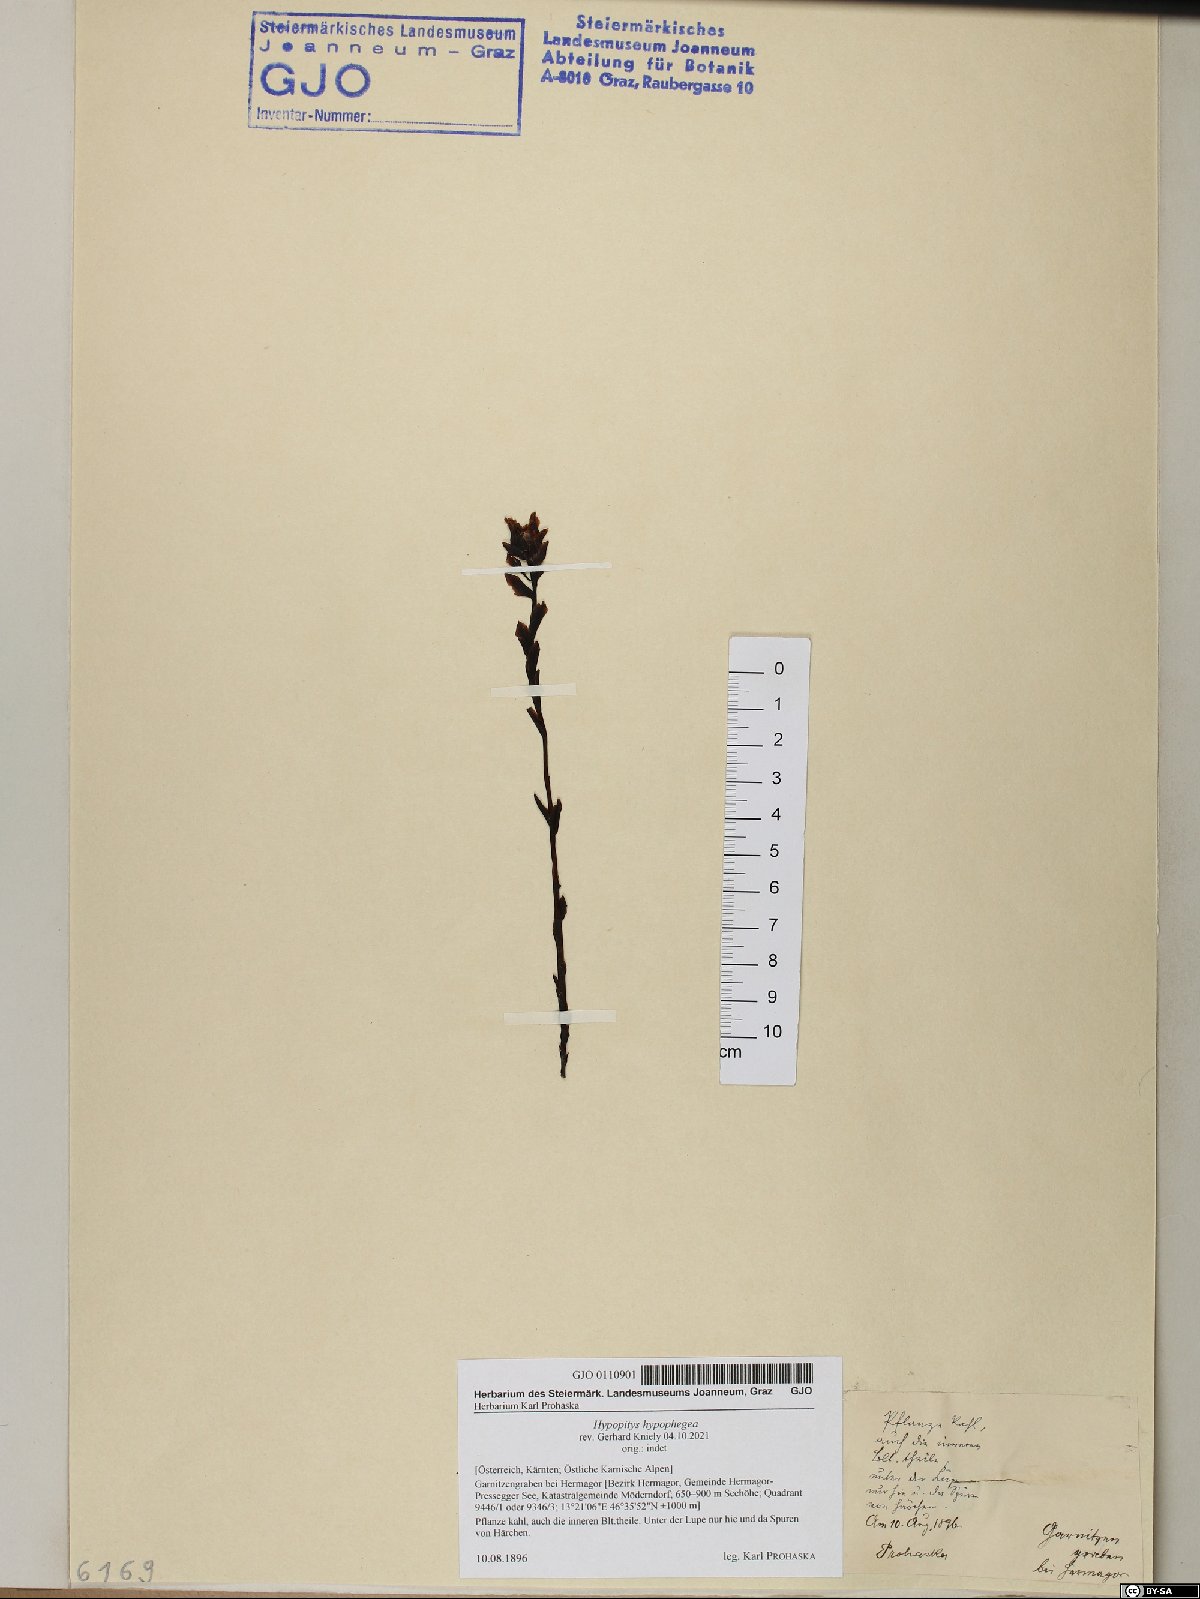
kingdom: Plantae
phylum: Tracheophyta
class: Magnoliopsida
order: Ericales
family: Ericaceae
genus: Hypopitys
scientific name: Hypopitys hypophegea
